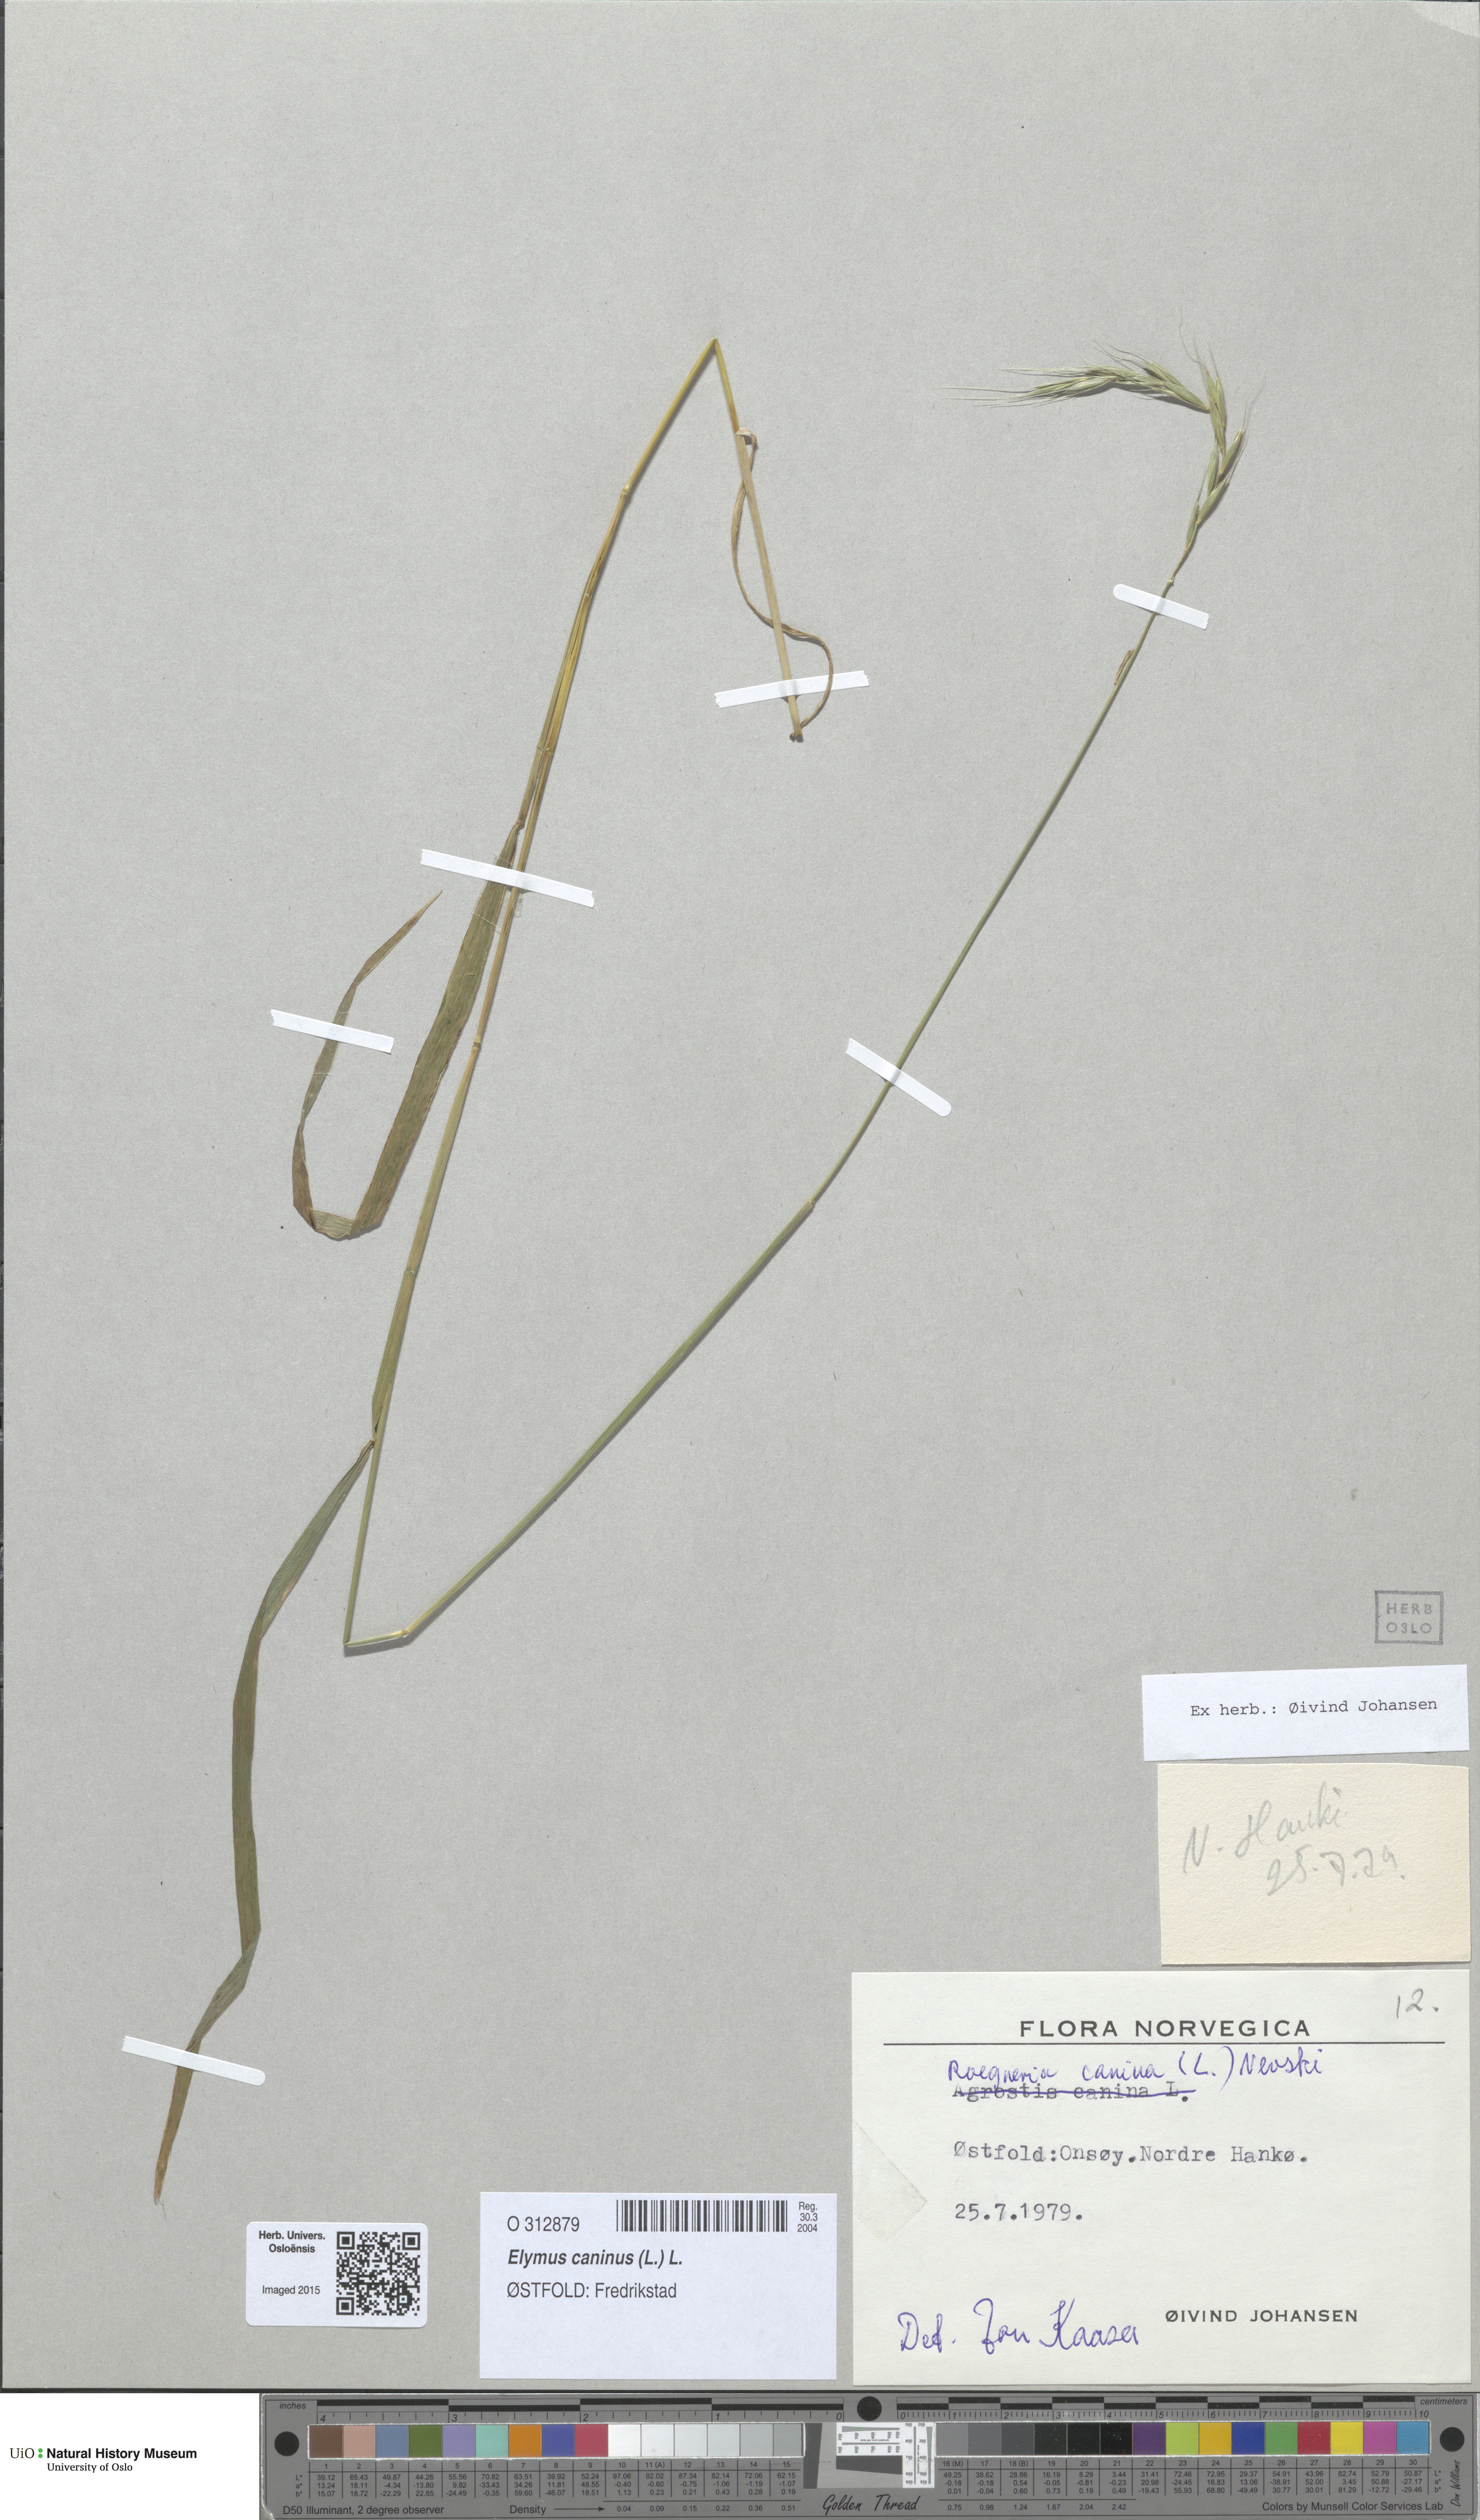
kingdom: Plantae
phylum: Tracheophyta
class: Liliopsida
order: Poales
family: Poaceae
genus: Elymus
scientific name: Elymus caninus
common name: Bearded couch
